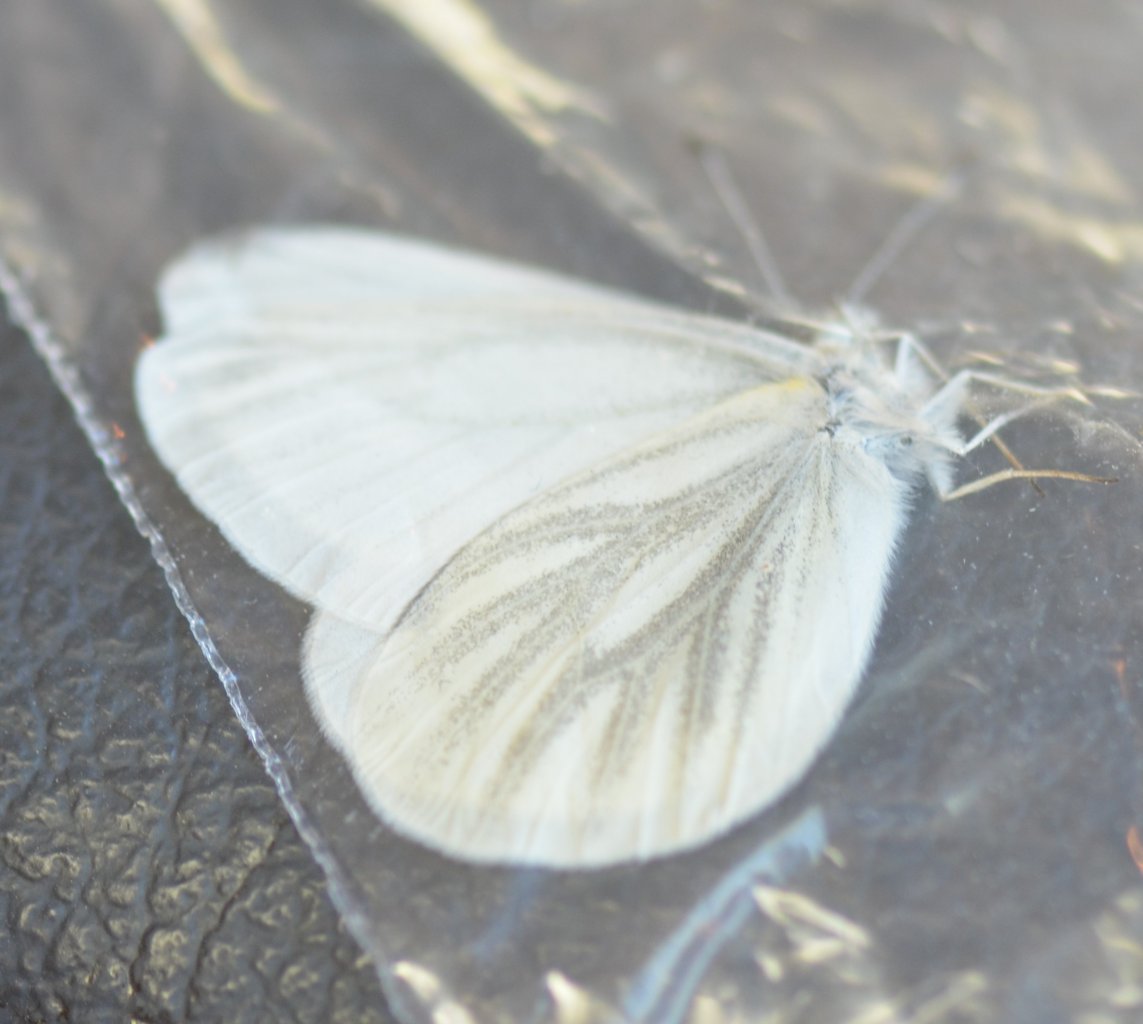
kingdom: Animalia
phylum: Arthropoda
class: Insecta
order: Lepidoptera
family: Pieridae
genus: Pieris
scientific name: Pieris virginiensis
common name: West Virginia White
